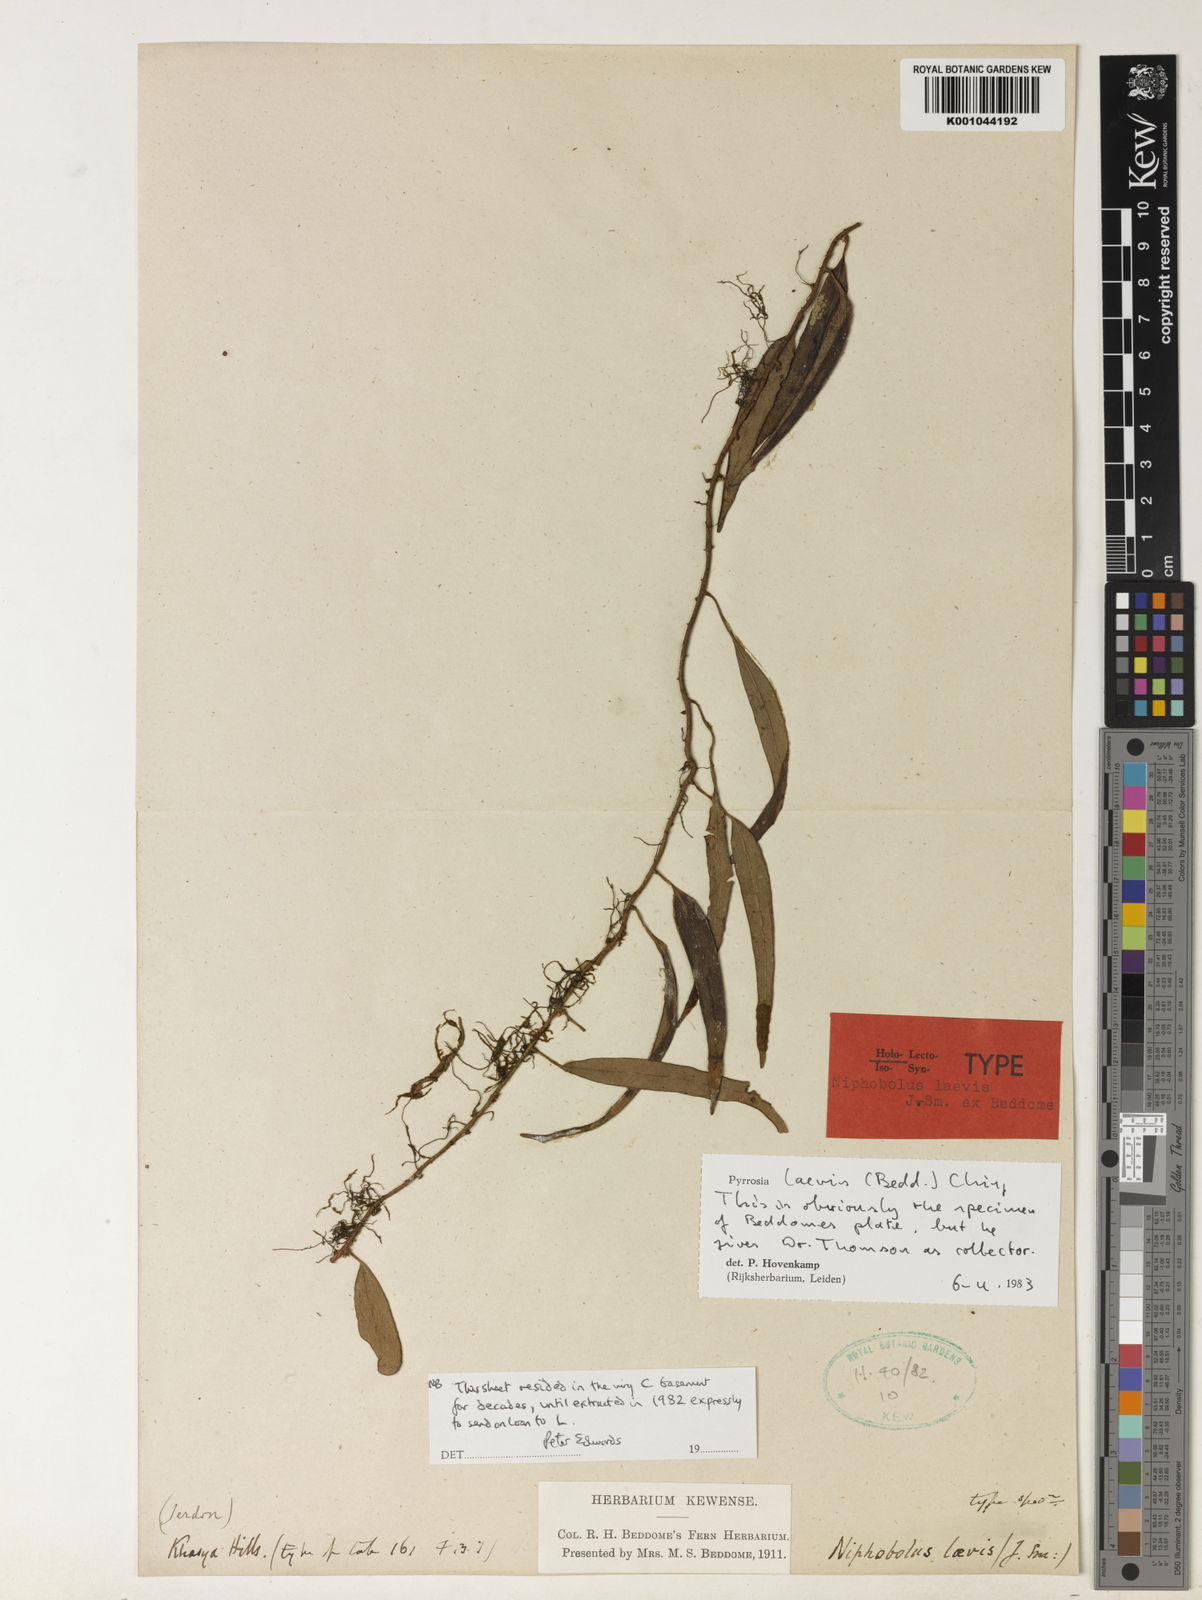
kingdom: Plantae
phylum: Tracheophyta
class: Polypodiopsida
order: Polypodiales
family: Polypodiaceae
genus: Pyrrosia
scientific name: Pyrrosia laevis
